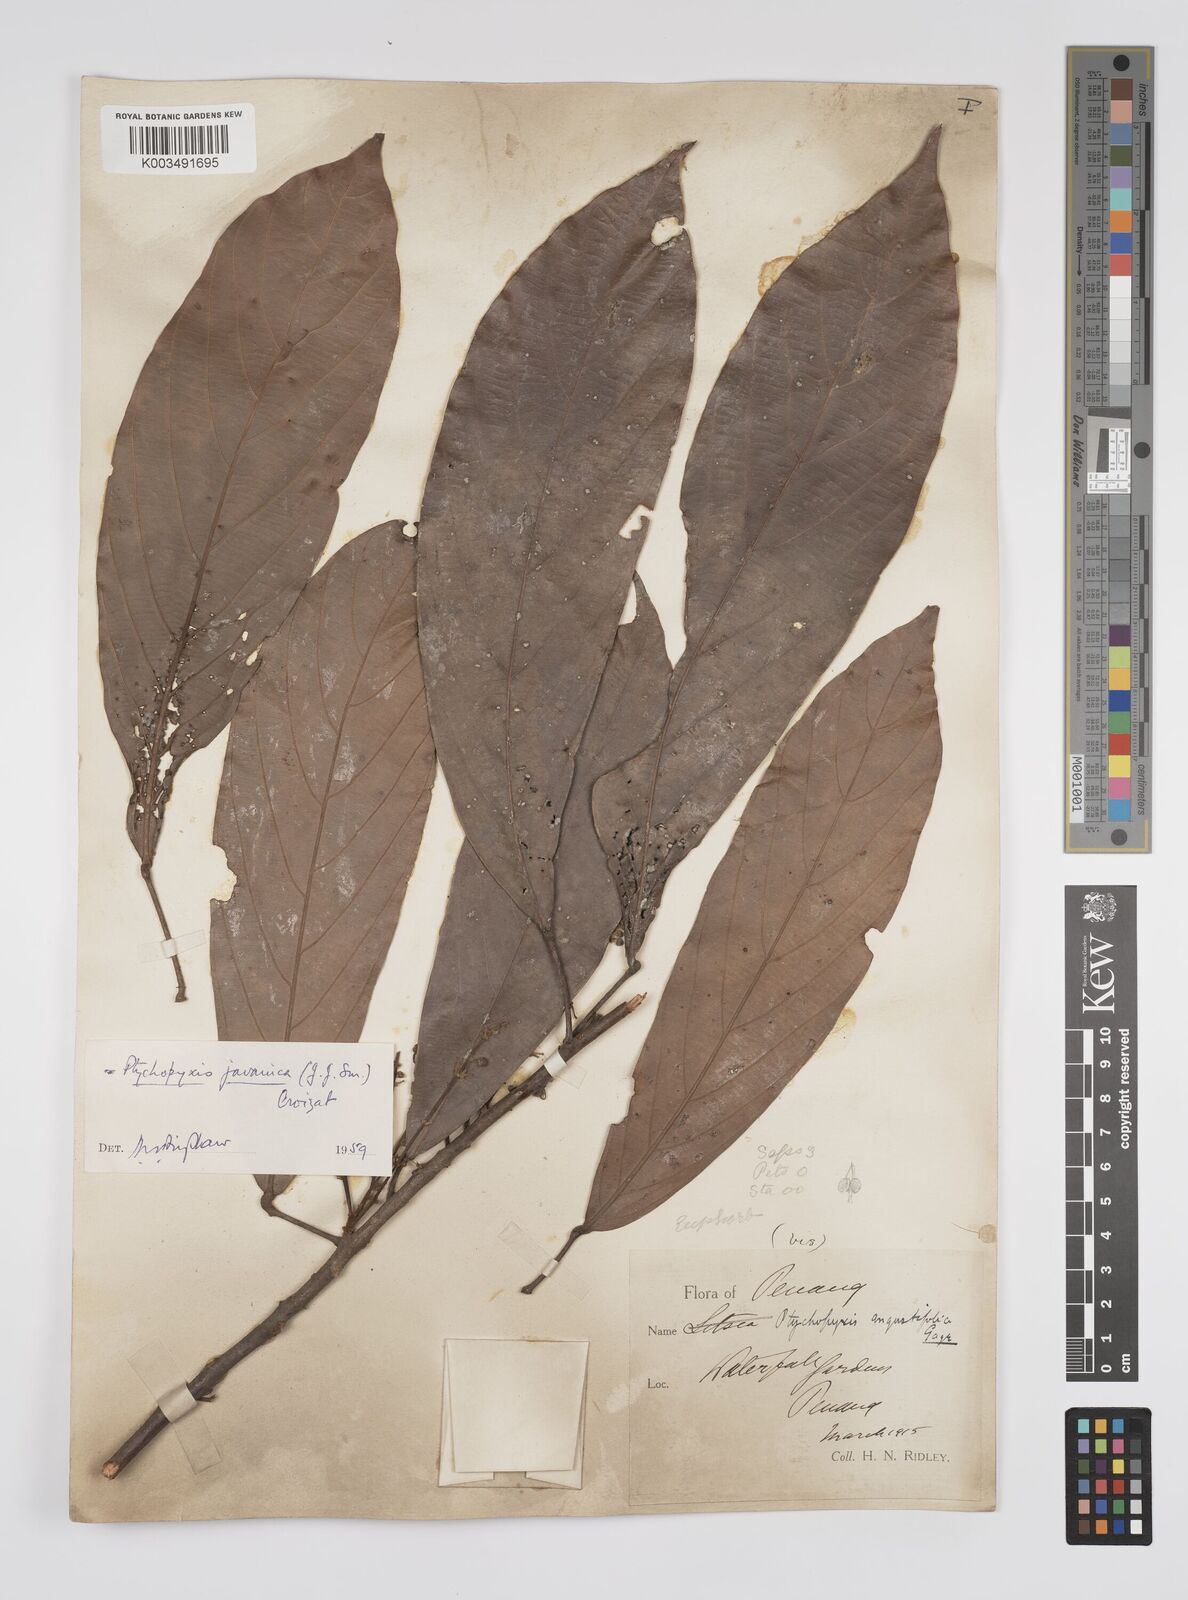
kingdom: Plantae
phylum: Tracheophyta
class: Magnoliopsida
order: Malpighiales
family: Euphorbiaceae
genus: Ptychopyxis
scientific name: Ptychopyxis javanica
